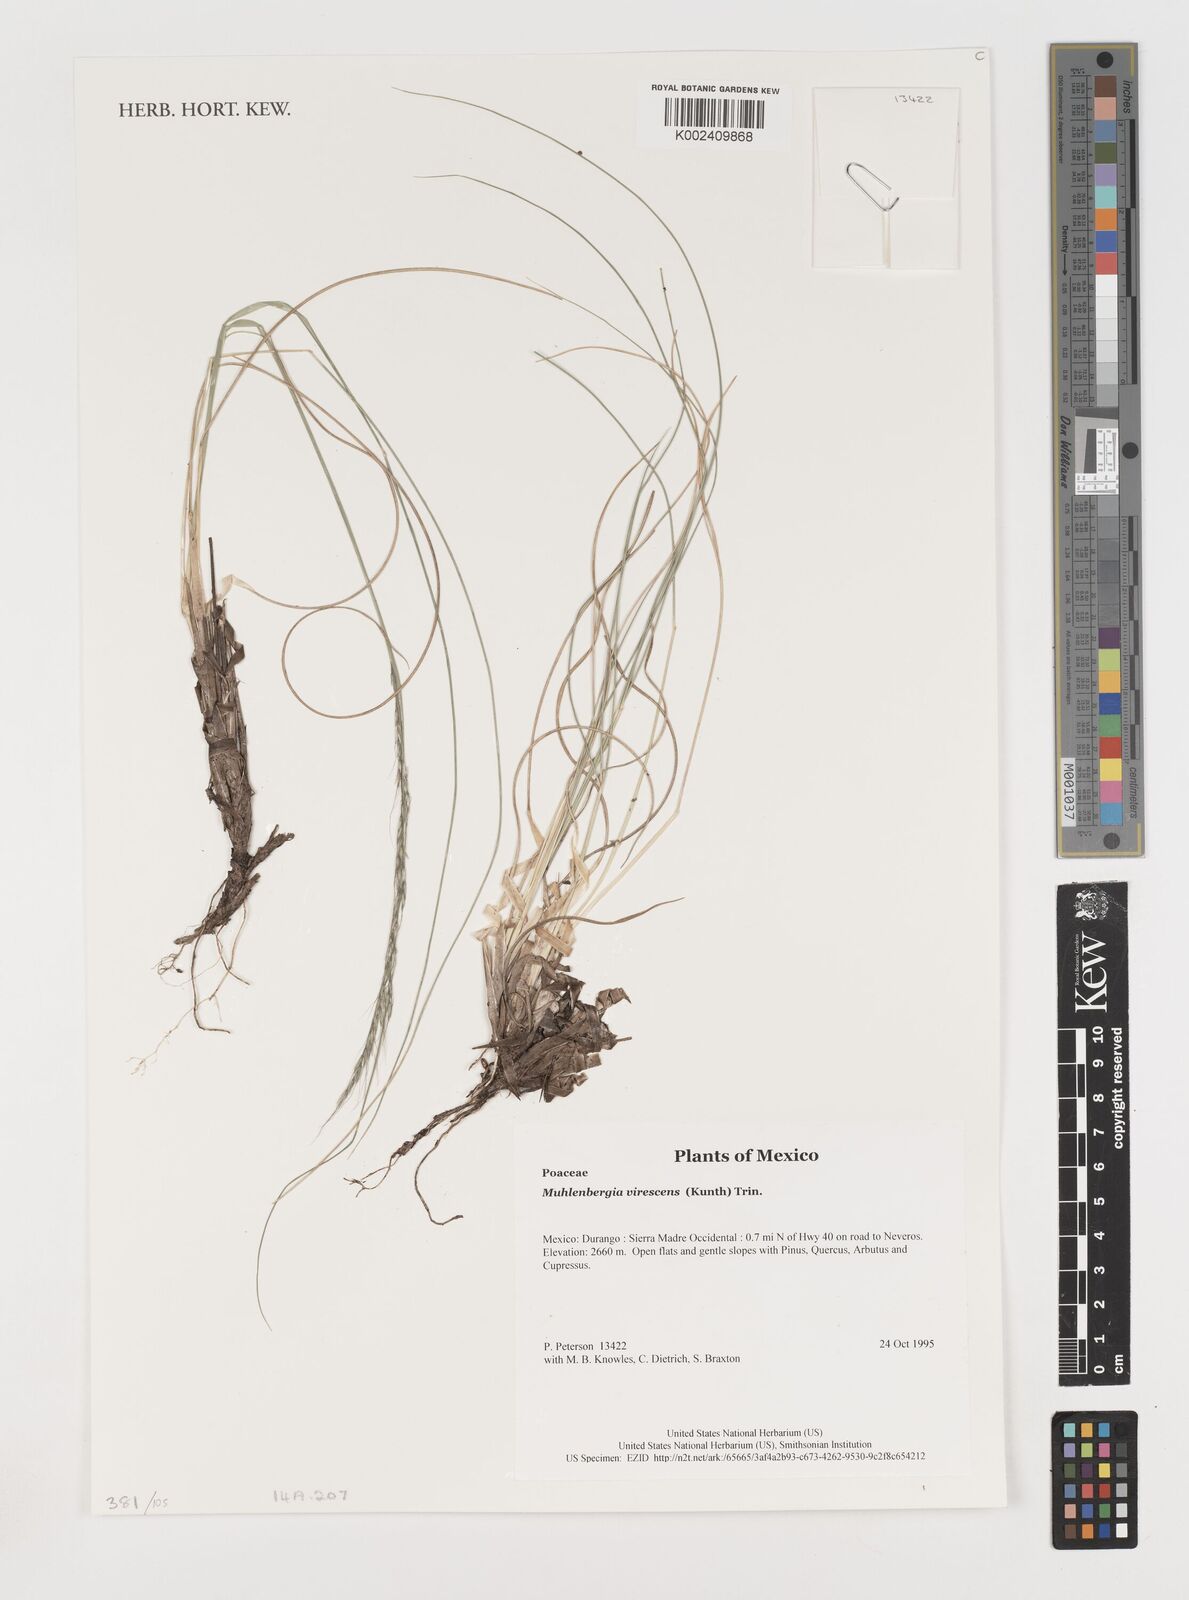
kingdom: Plantae
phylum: Tracheophyta
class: Liliopsida
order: Poales
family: Poaceae
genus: Muhlenbergia
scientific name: Muhlenbergia virescens
